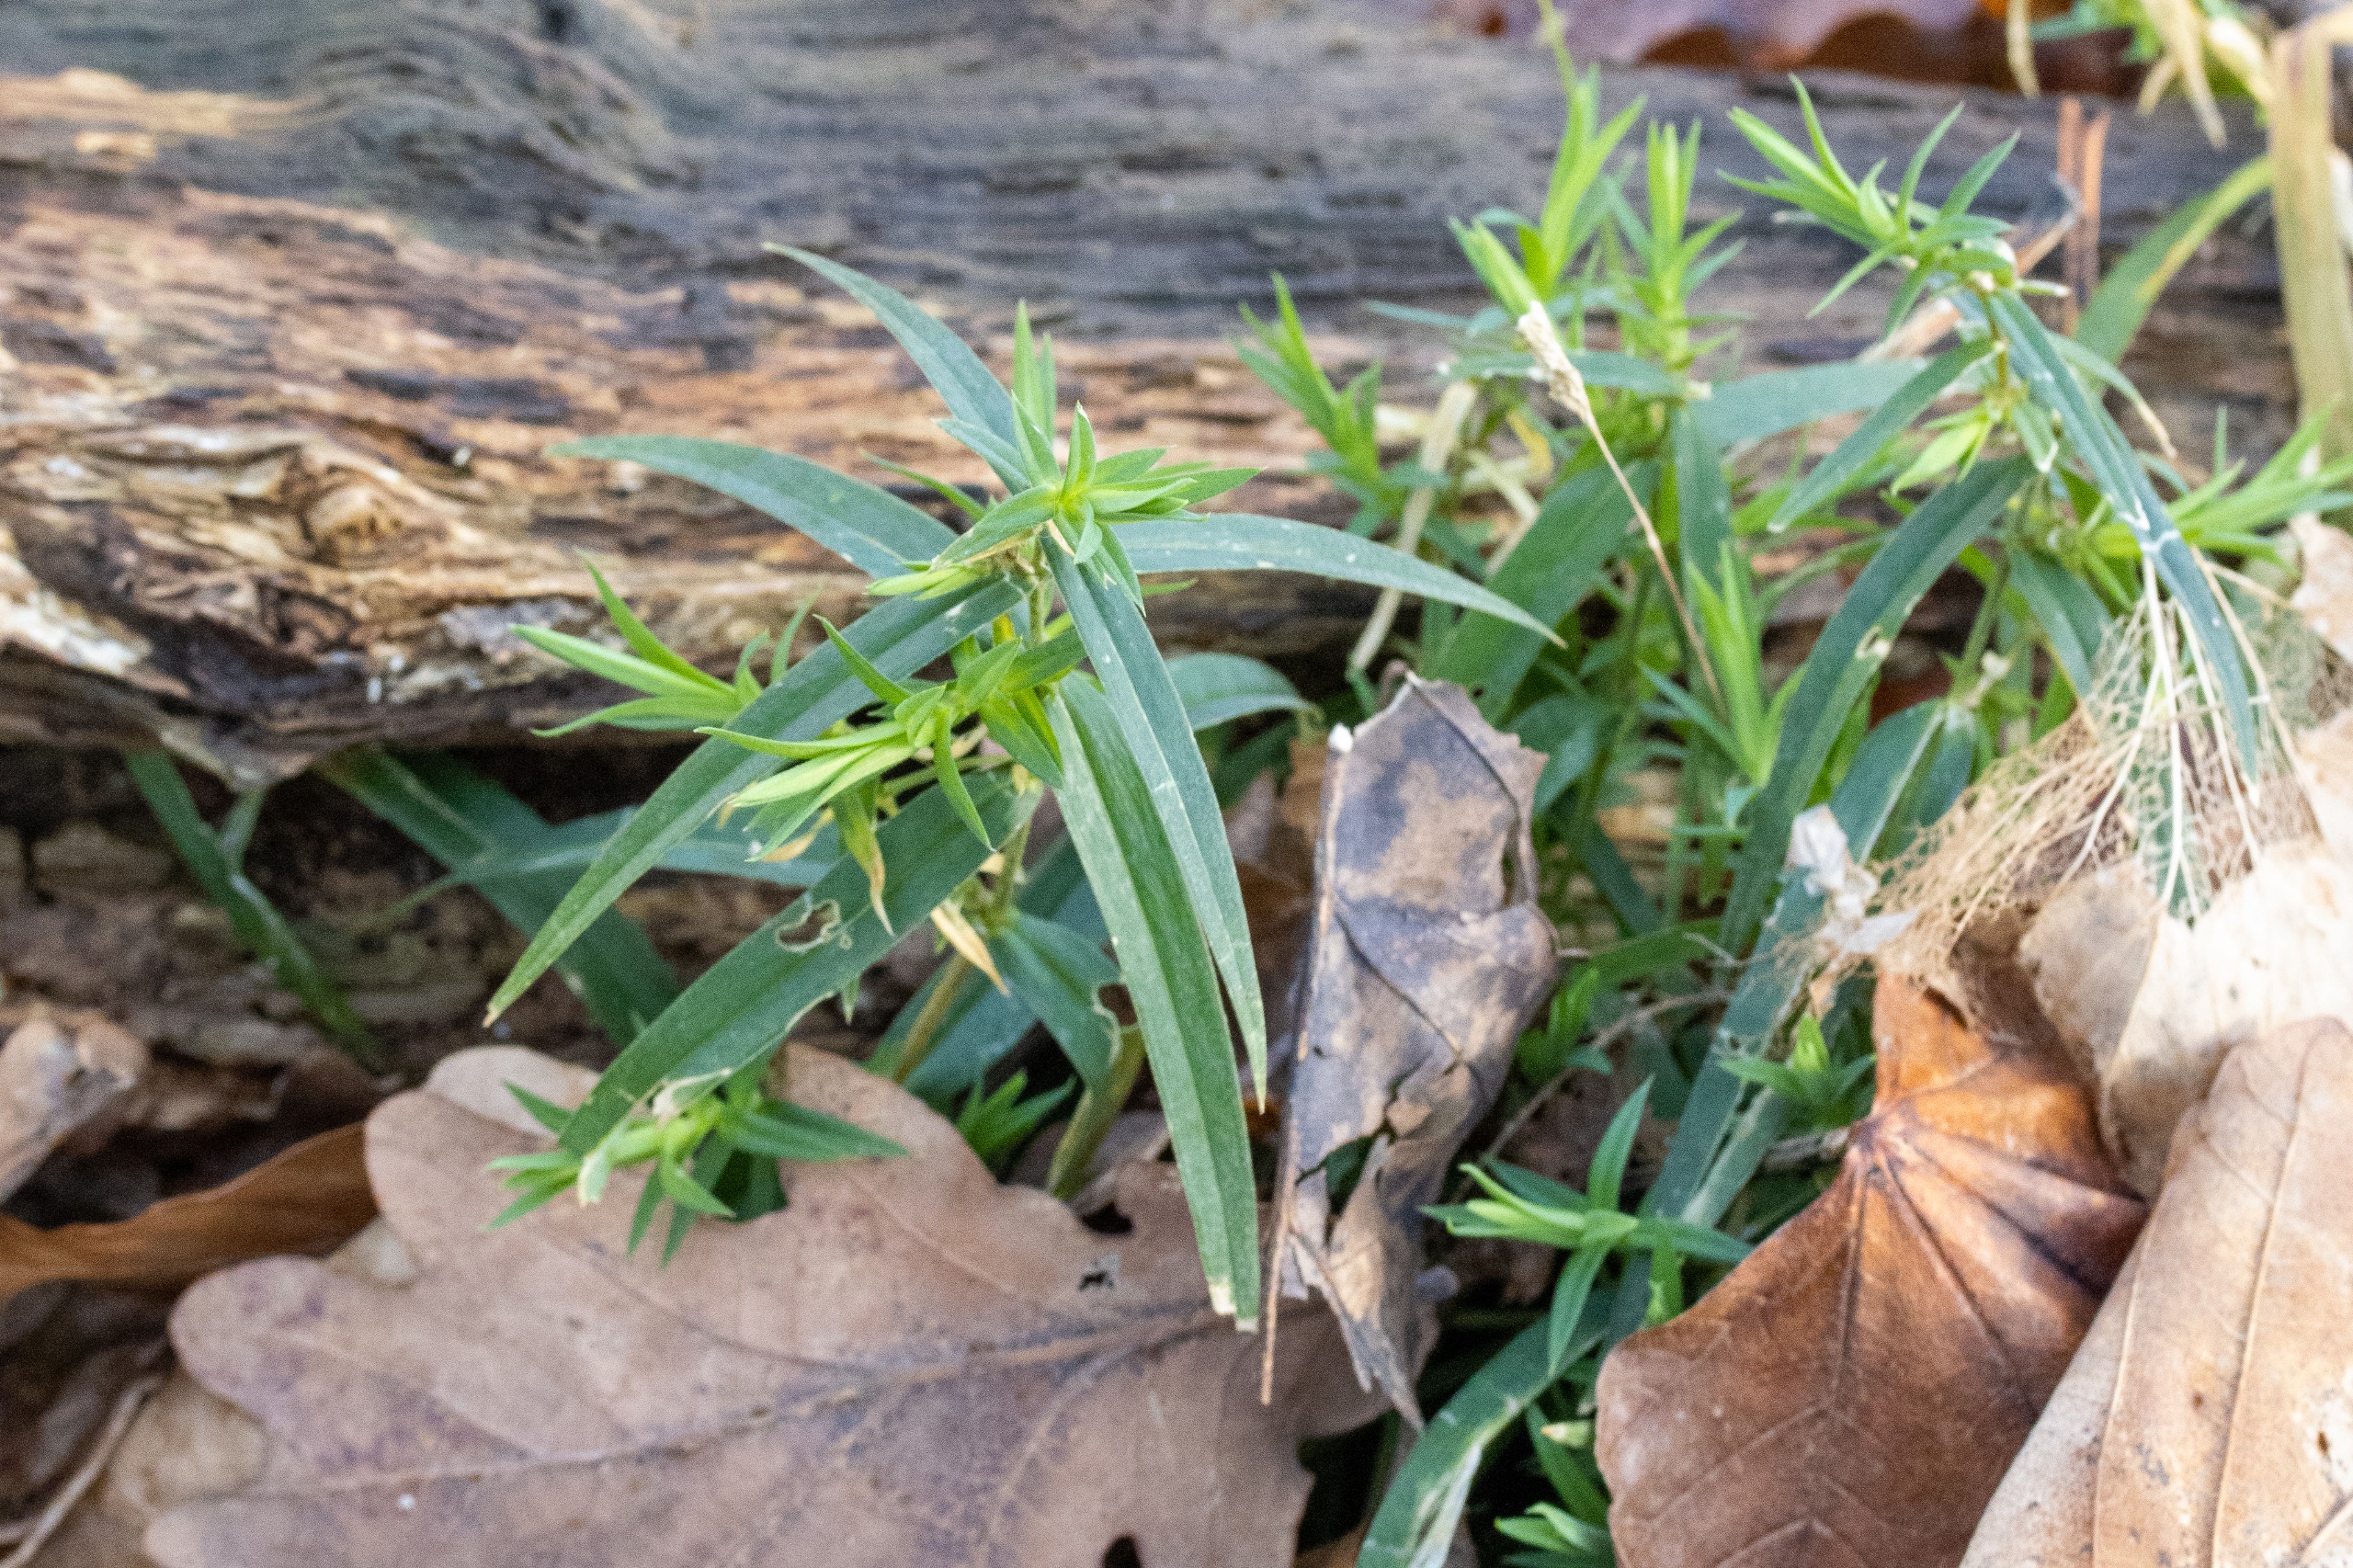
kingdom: Plantae
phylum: Tracheophyta
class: Magnoliopsida
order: Caryophyllales
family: Caryophyllaceae
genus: Rabelera
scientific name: Rabelera holostea
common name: Stor fladstjerne
